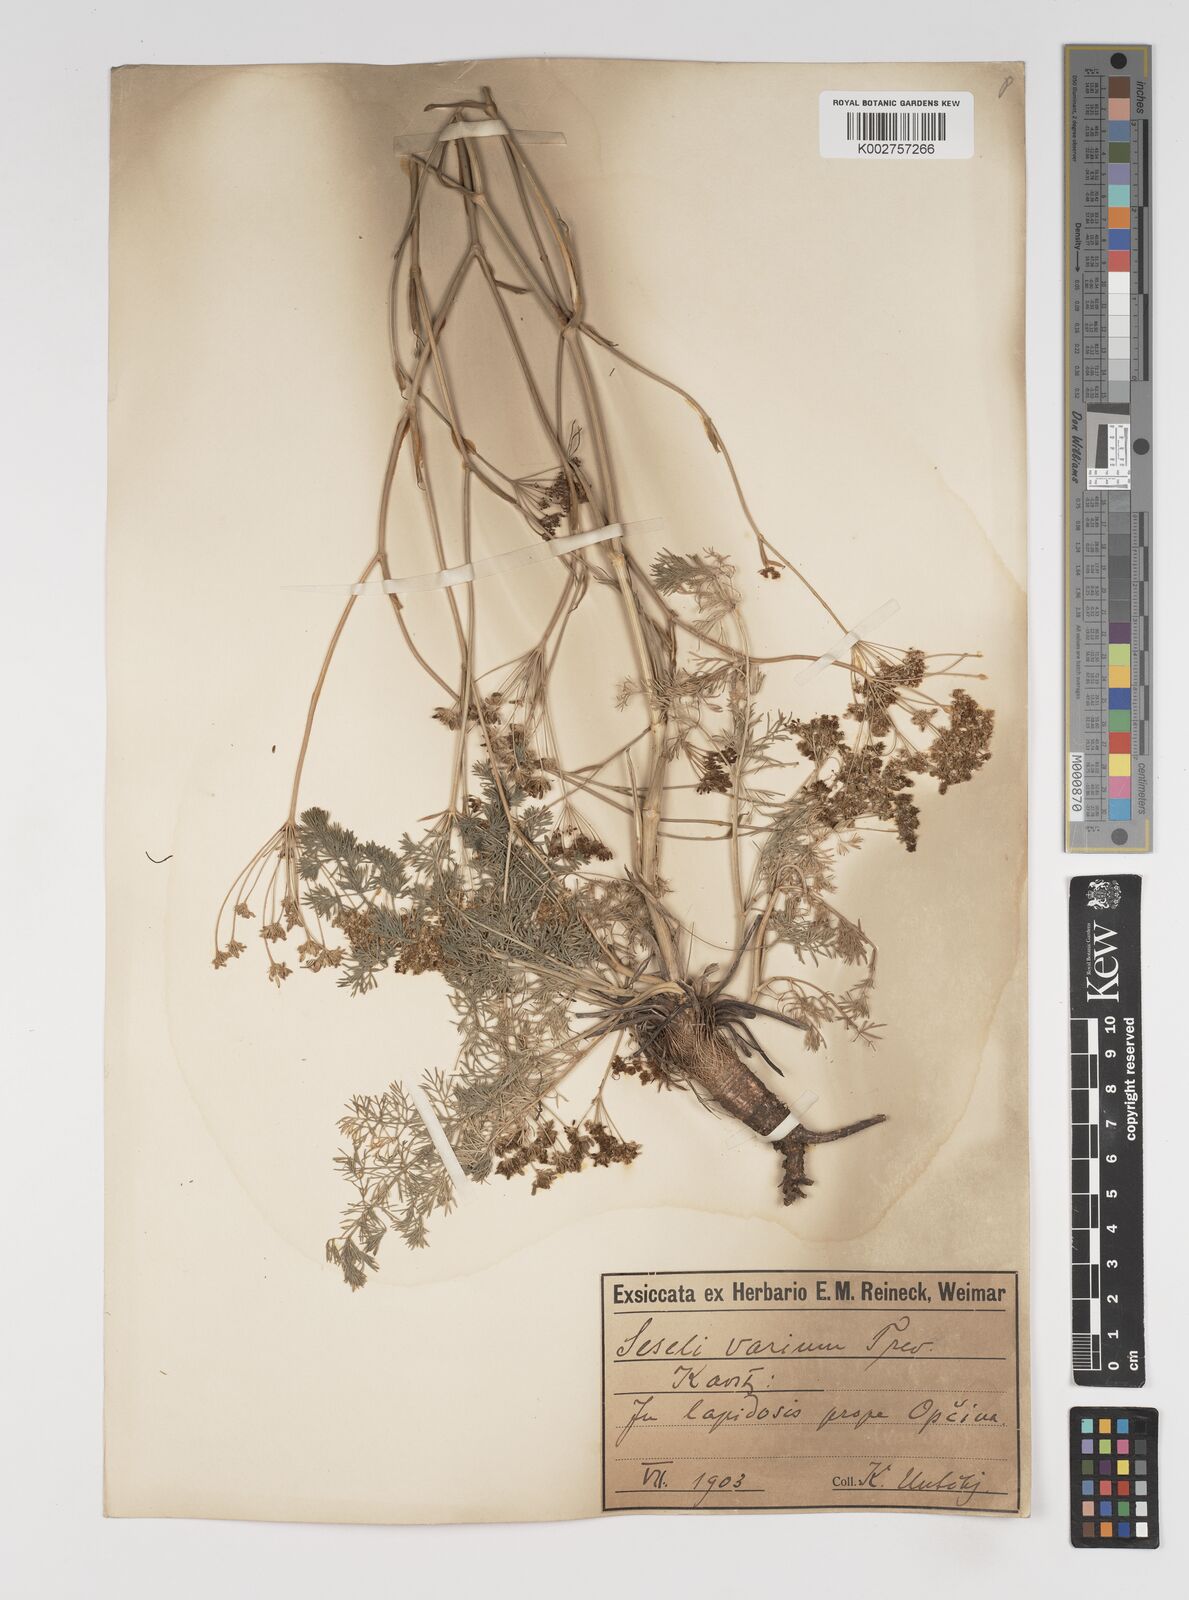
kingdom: Plantae
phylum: Tracheophyta
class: Magnoliopsida
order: Apiales
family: Apiaceae
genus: Seseli
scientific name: Seseli pallasii
